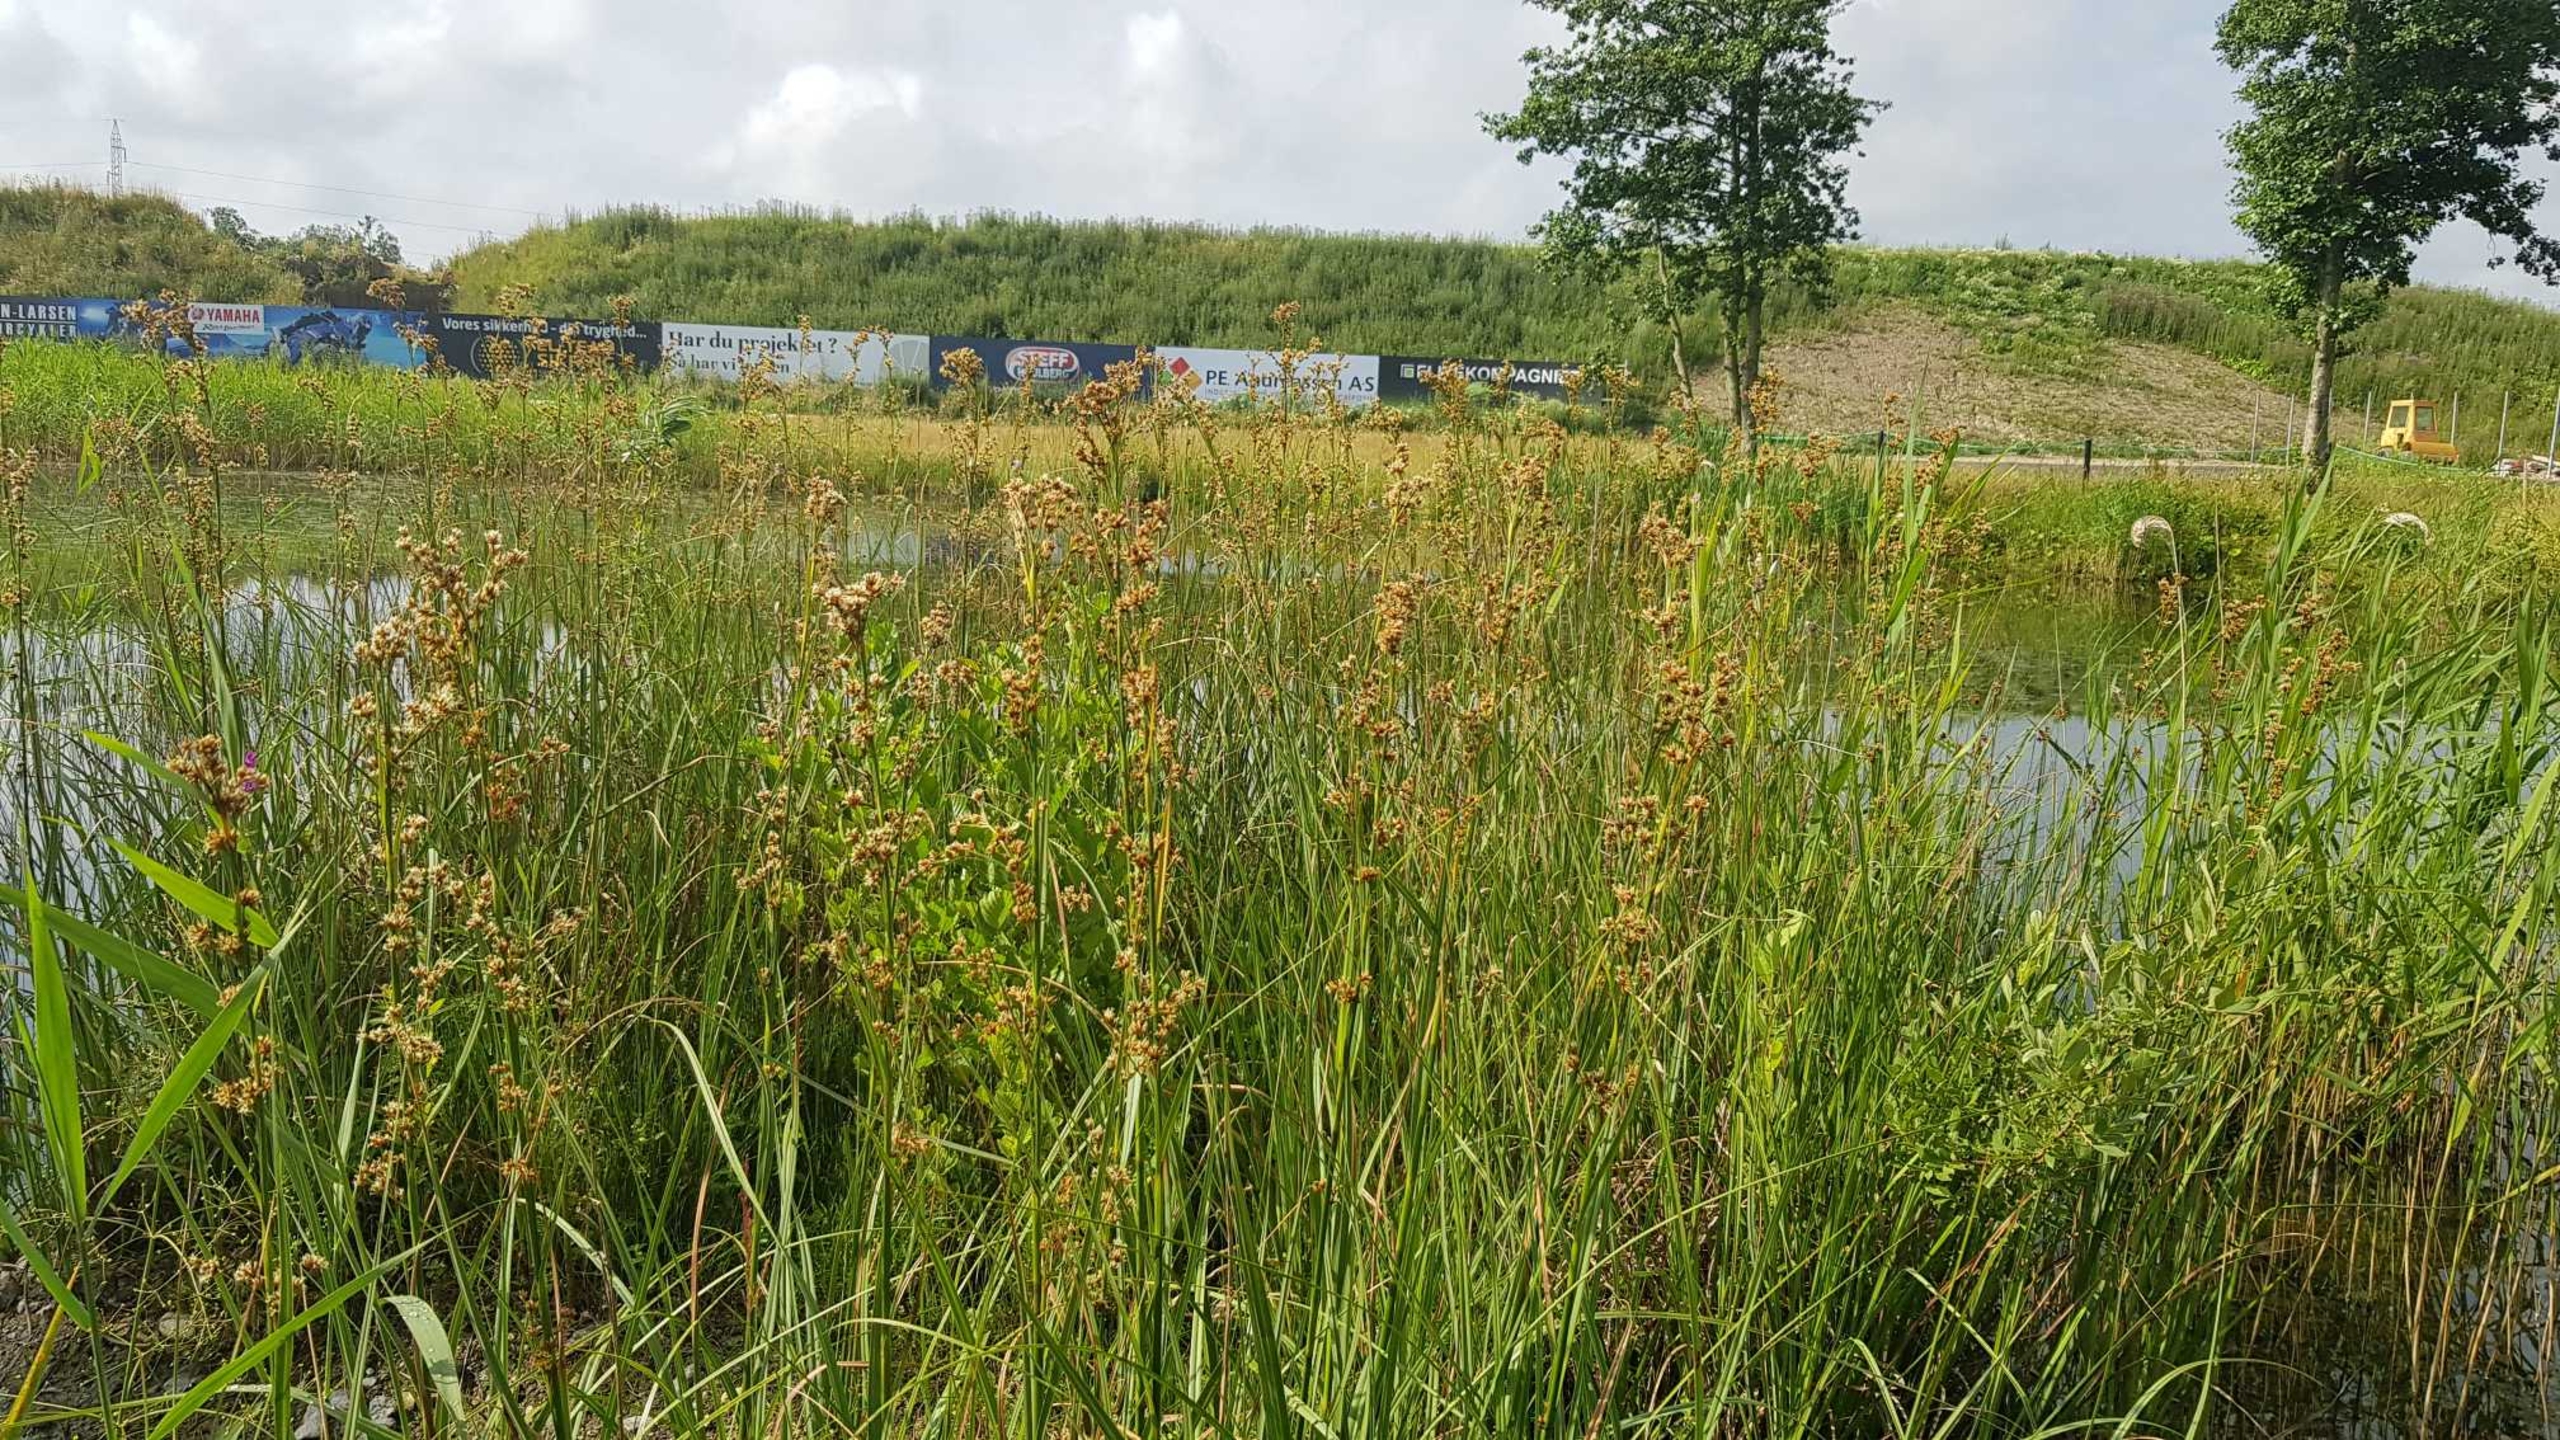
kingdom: Plantae
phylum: Tracheophyta
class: Liliopsida
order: Poales
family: Cyperaceae
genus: Cladium
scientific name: Cladium mariscus
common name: Hvas avneknippe
